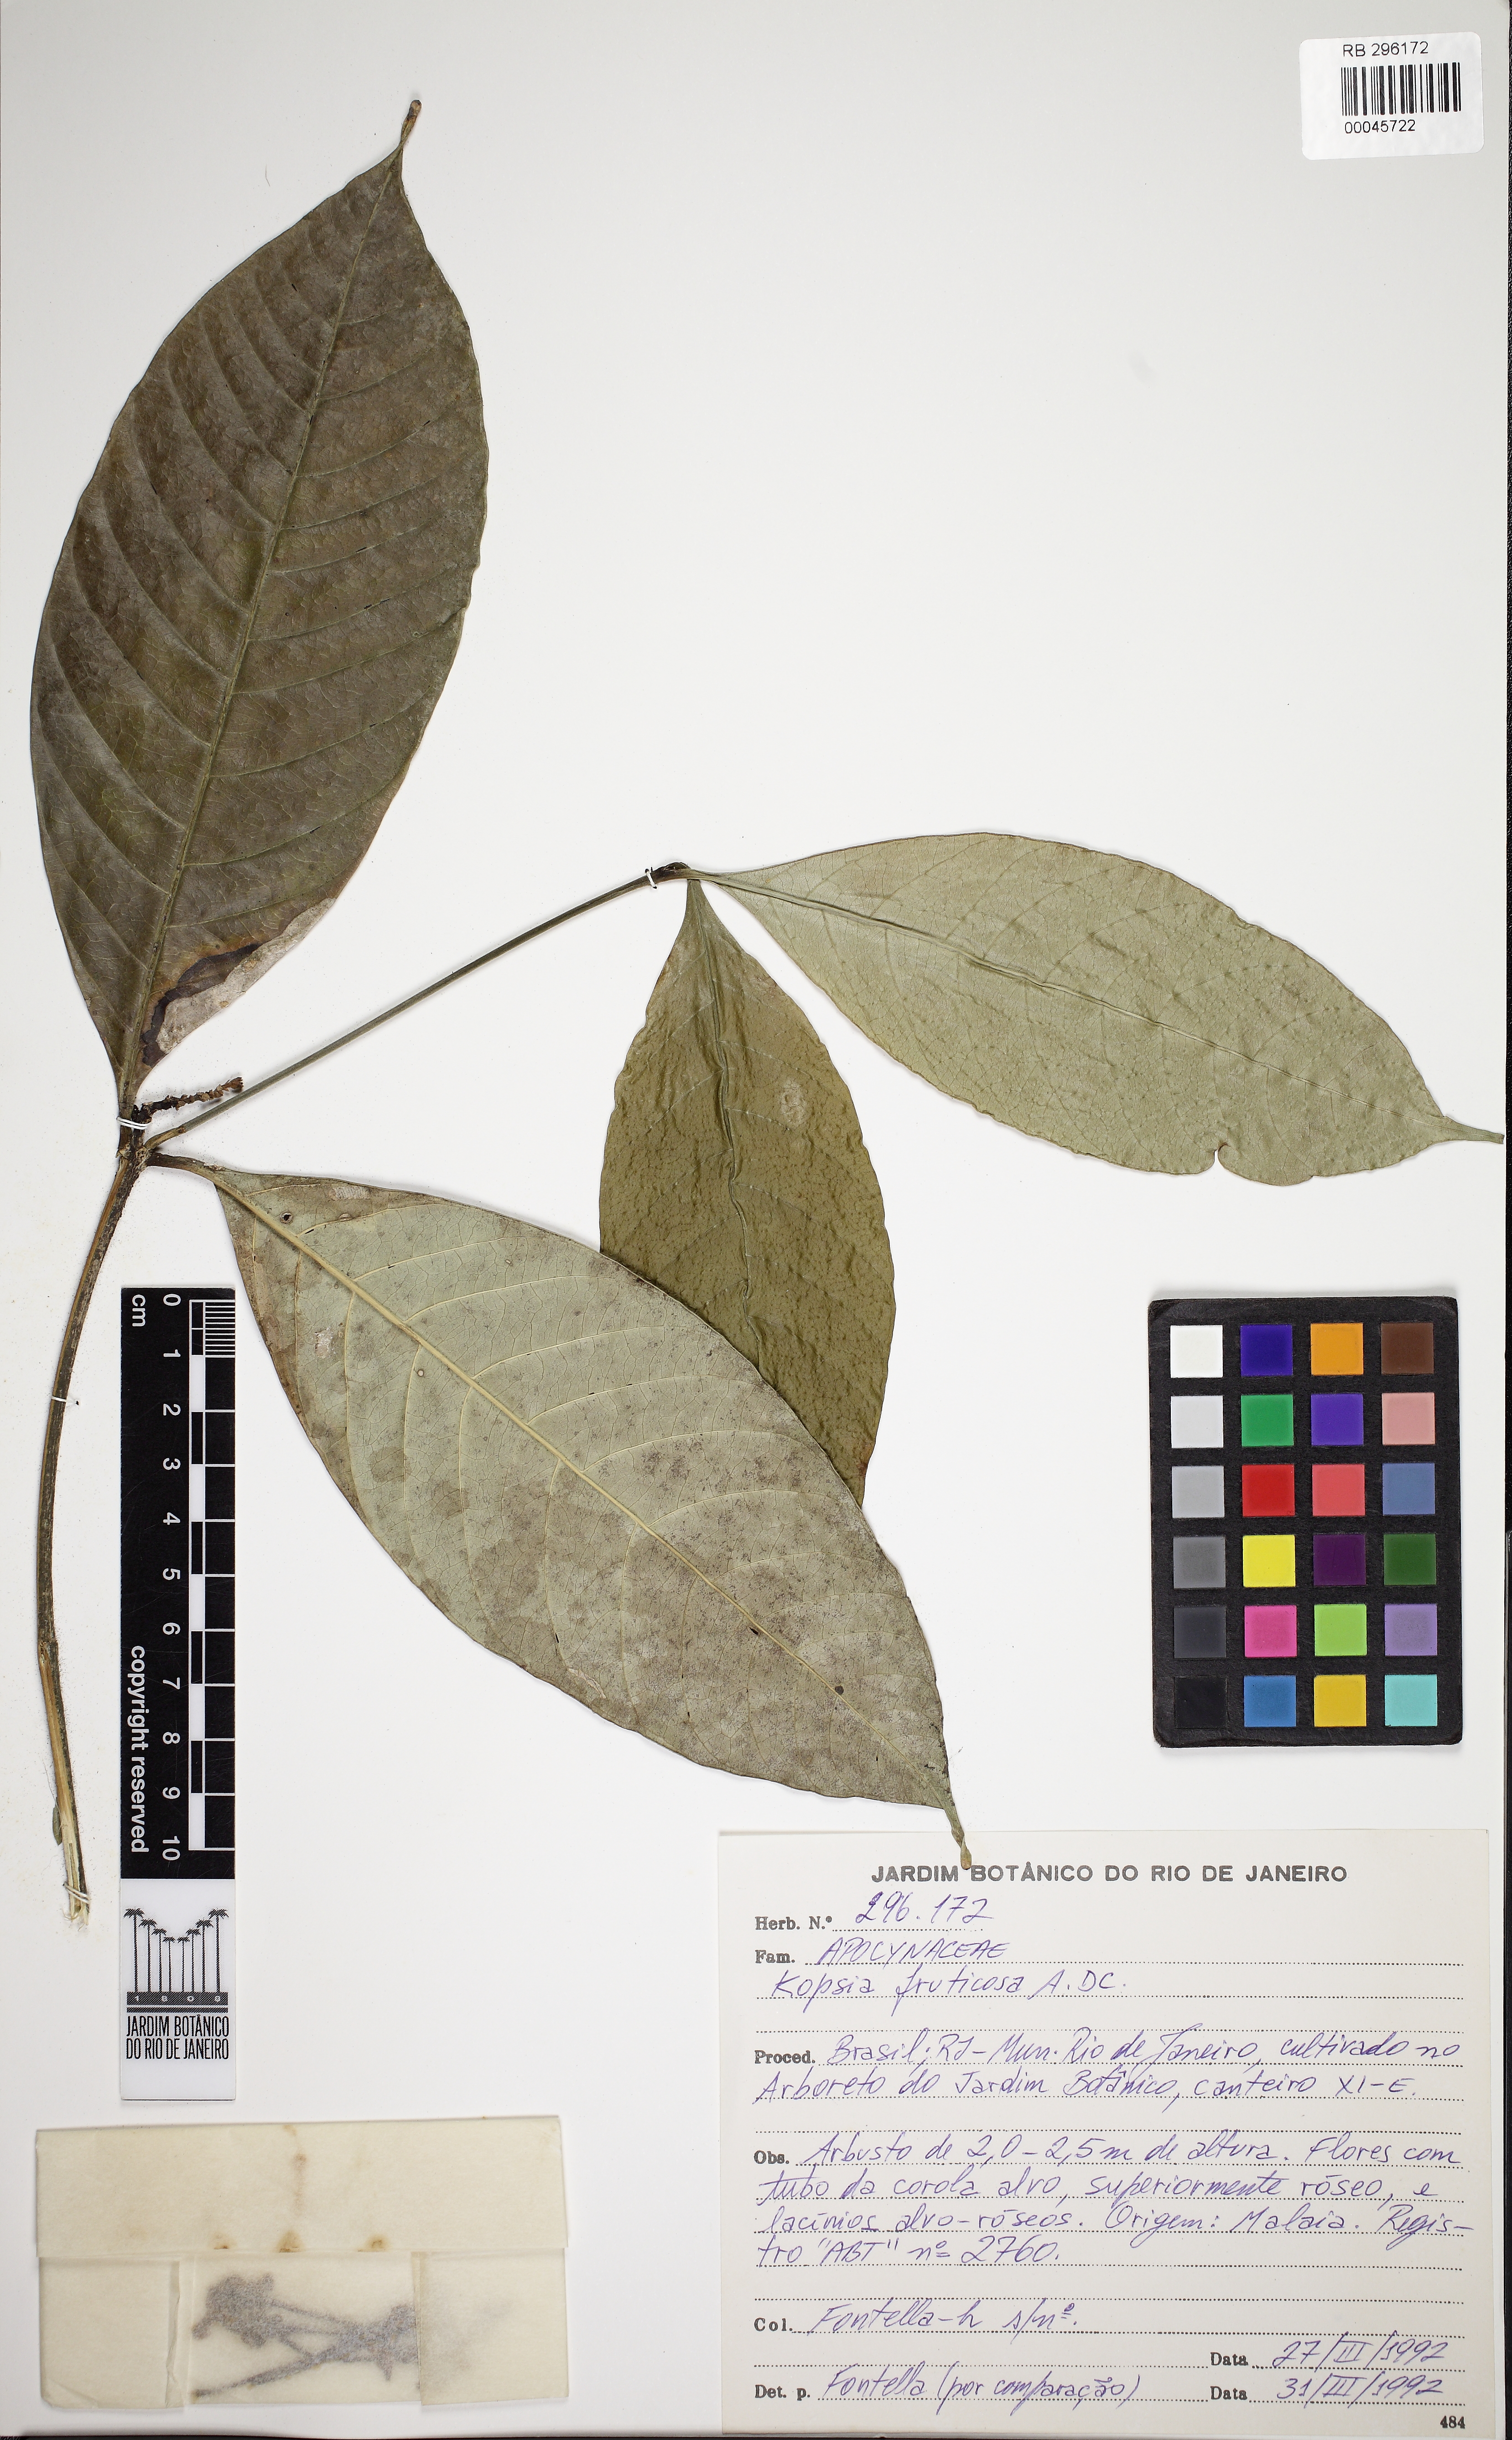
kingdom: Plantae
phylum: Tracheophyta
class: Magnoliopsida
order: Gentianales
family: Apocynaceae
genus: Kopsia
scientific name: Kopsia fruticosa
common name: Shrub-vinca
